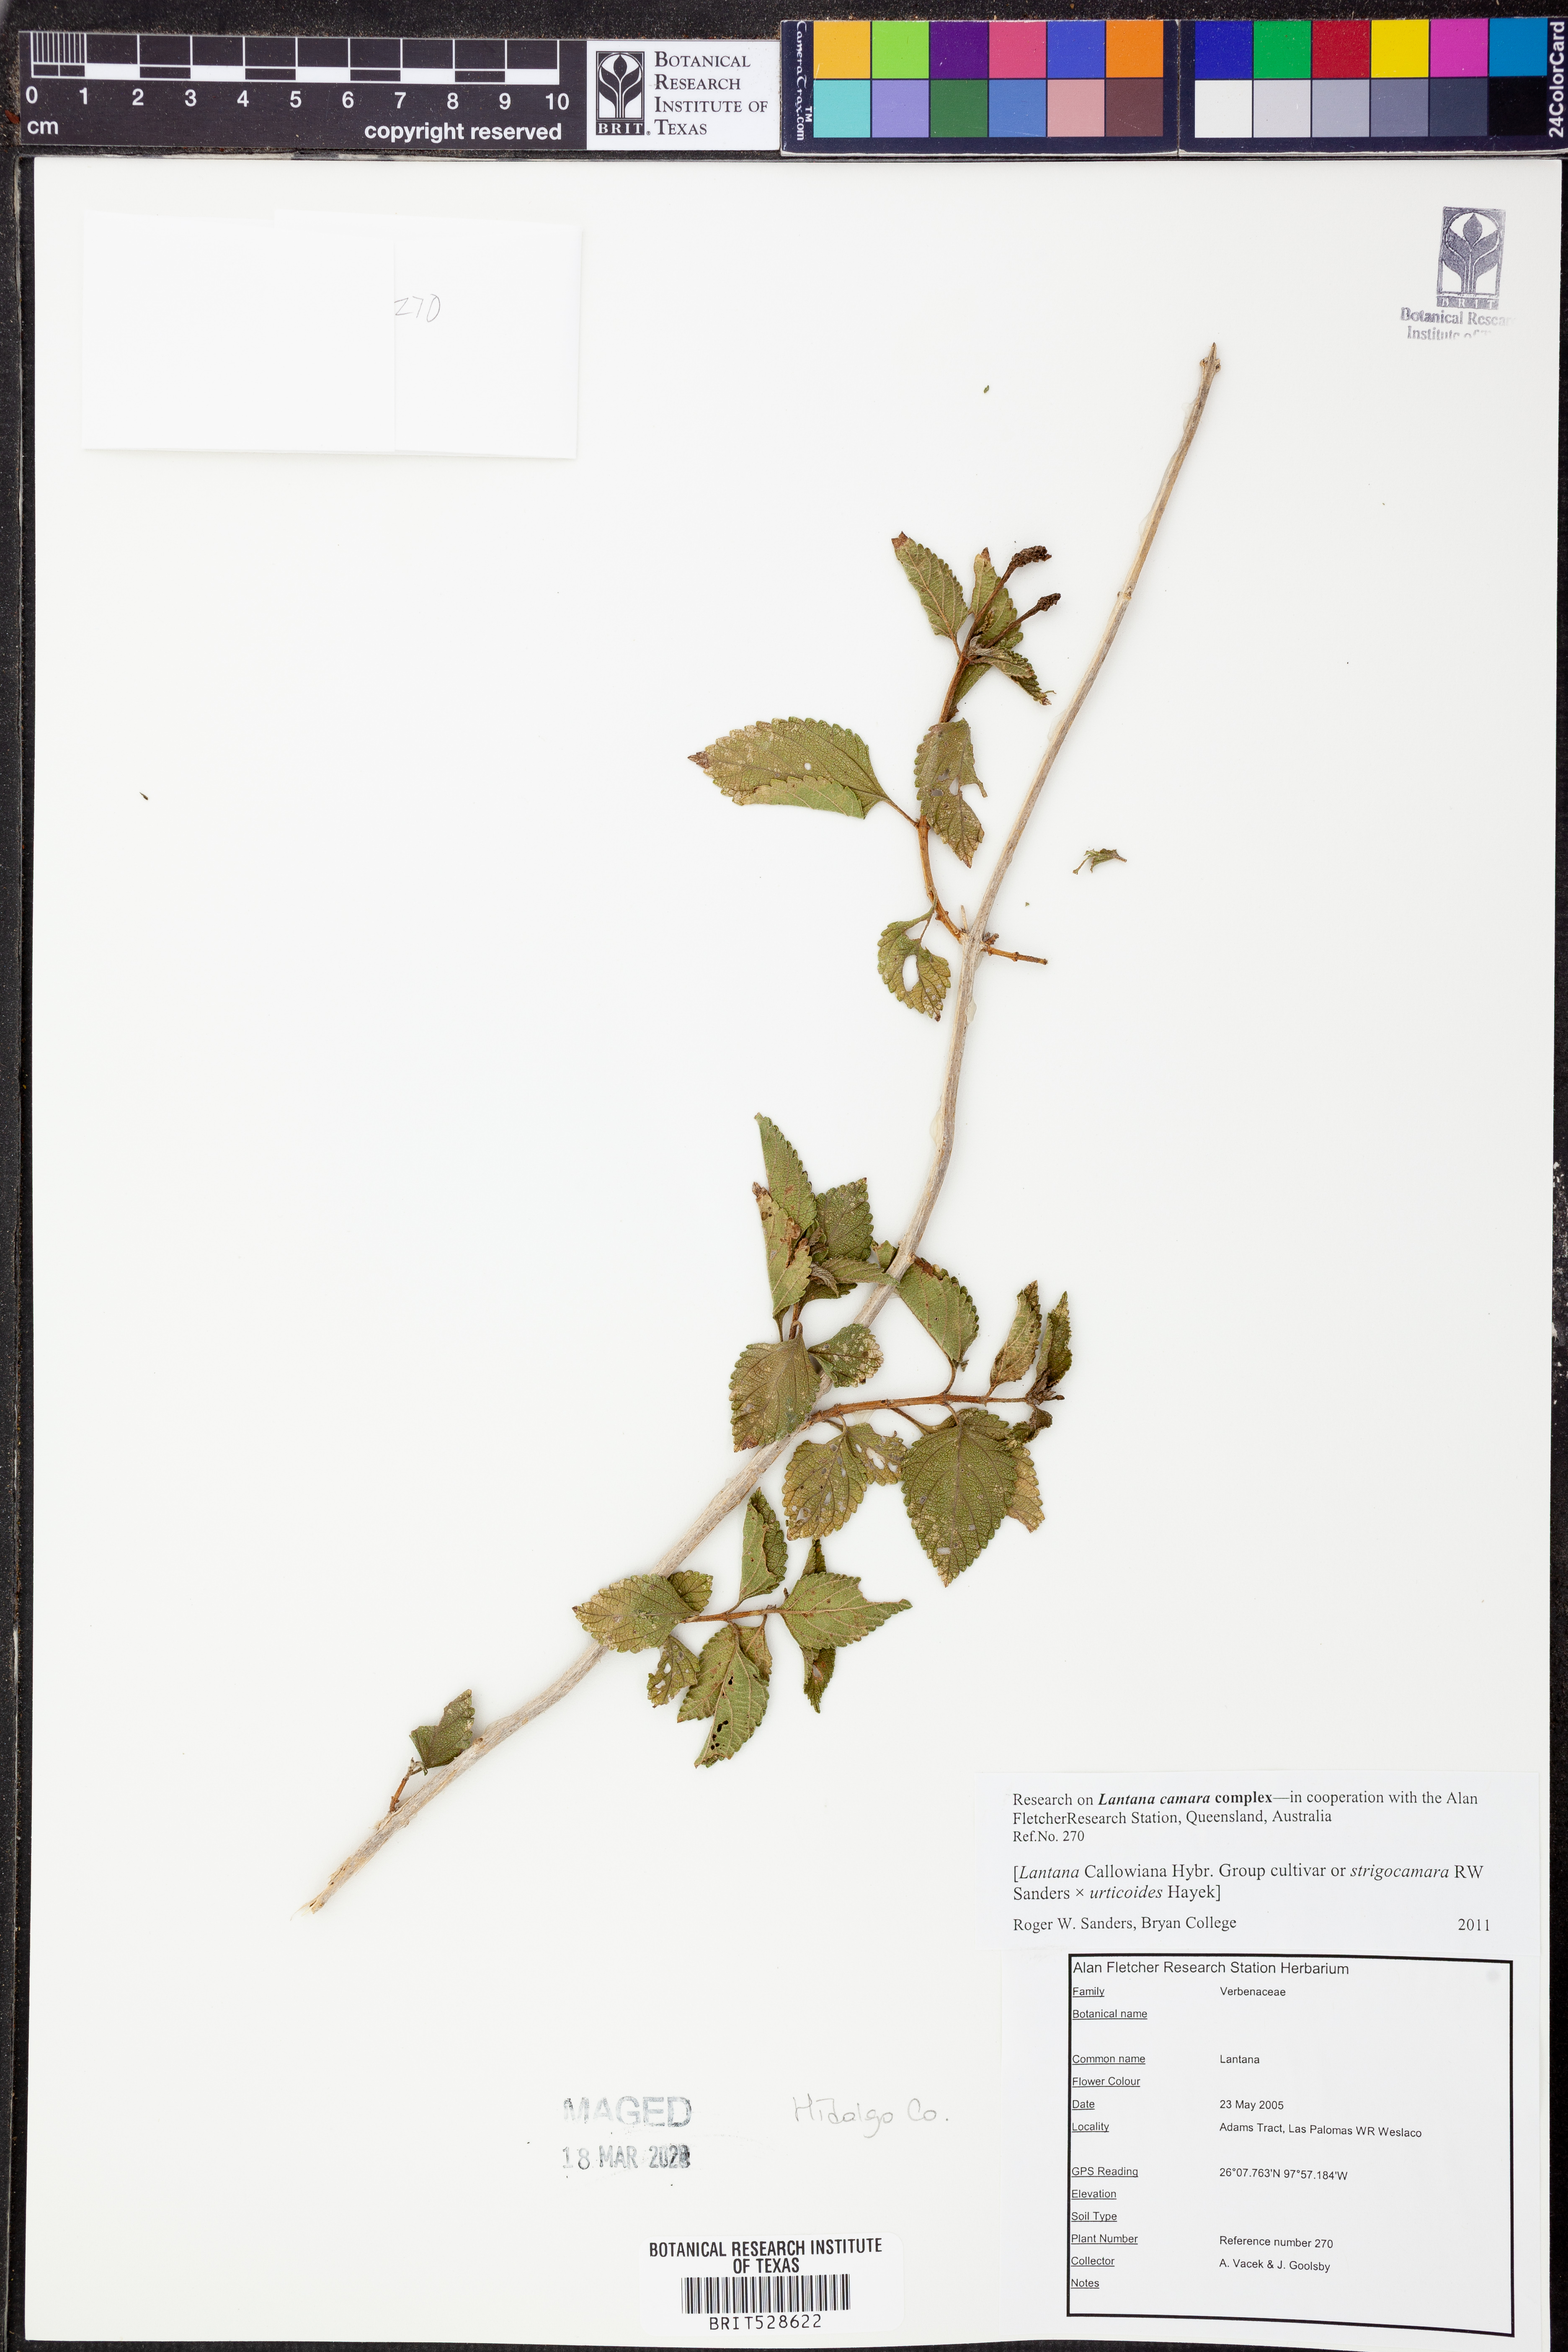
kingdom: Plantae
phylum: Tracheophyta
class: Magnoliopsida
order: Lamiales
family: Verbenaceae
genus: Lantana
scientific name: Lantana strigocamara
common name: Lantana
